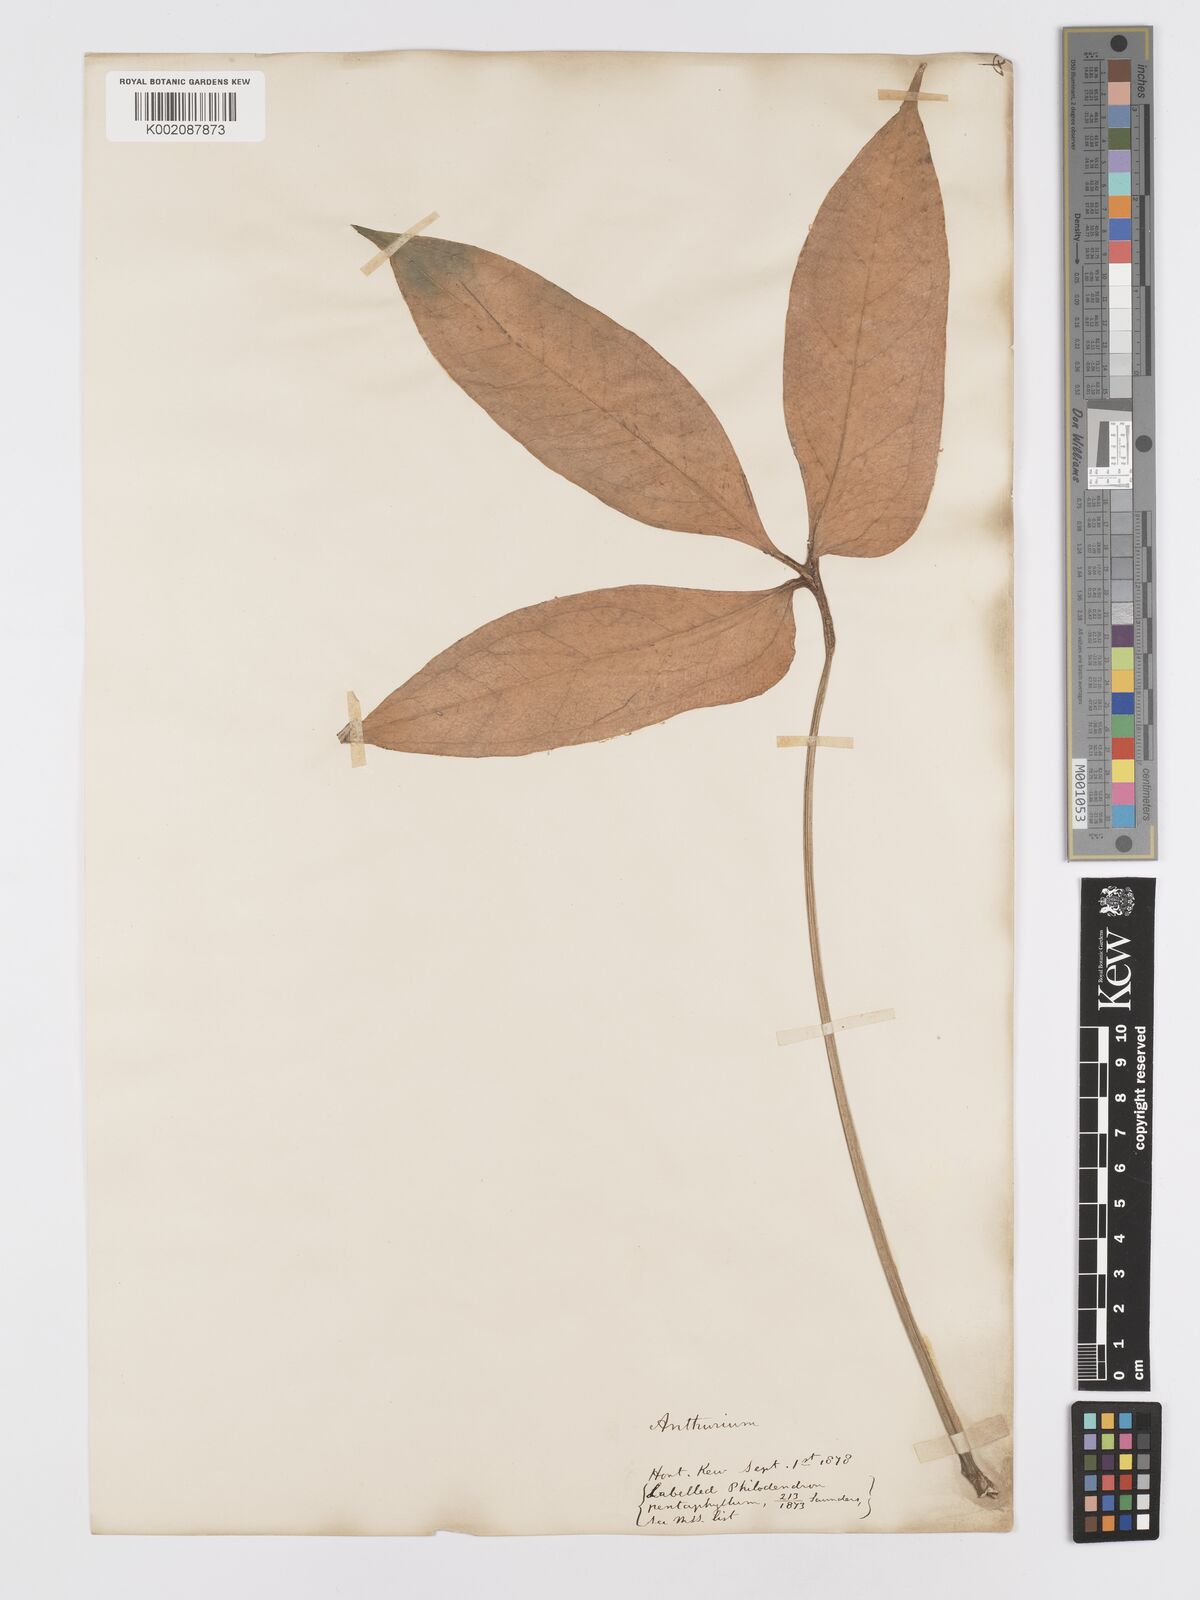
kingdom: Plantae
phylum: Tracheophyta
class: Liliopsida
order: Alismatales
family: Araceae
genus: Anthurium
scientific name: Anthurium pentaphyllum
